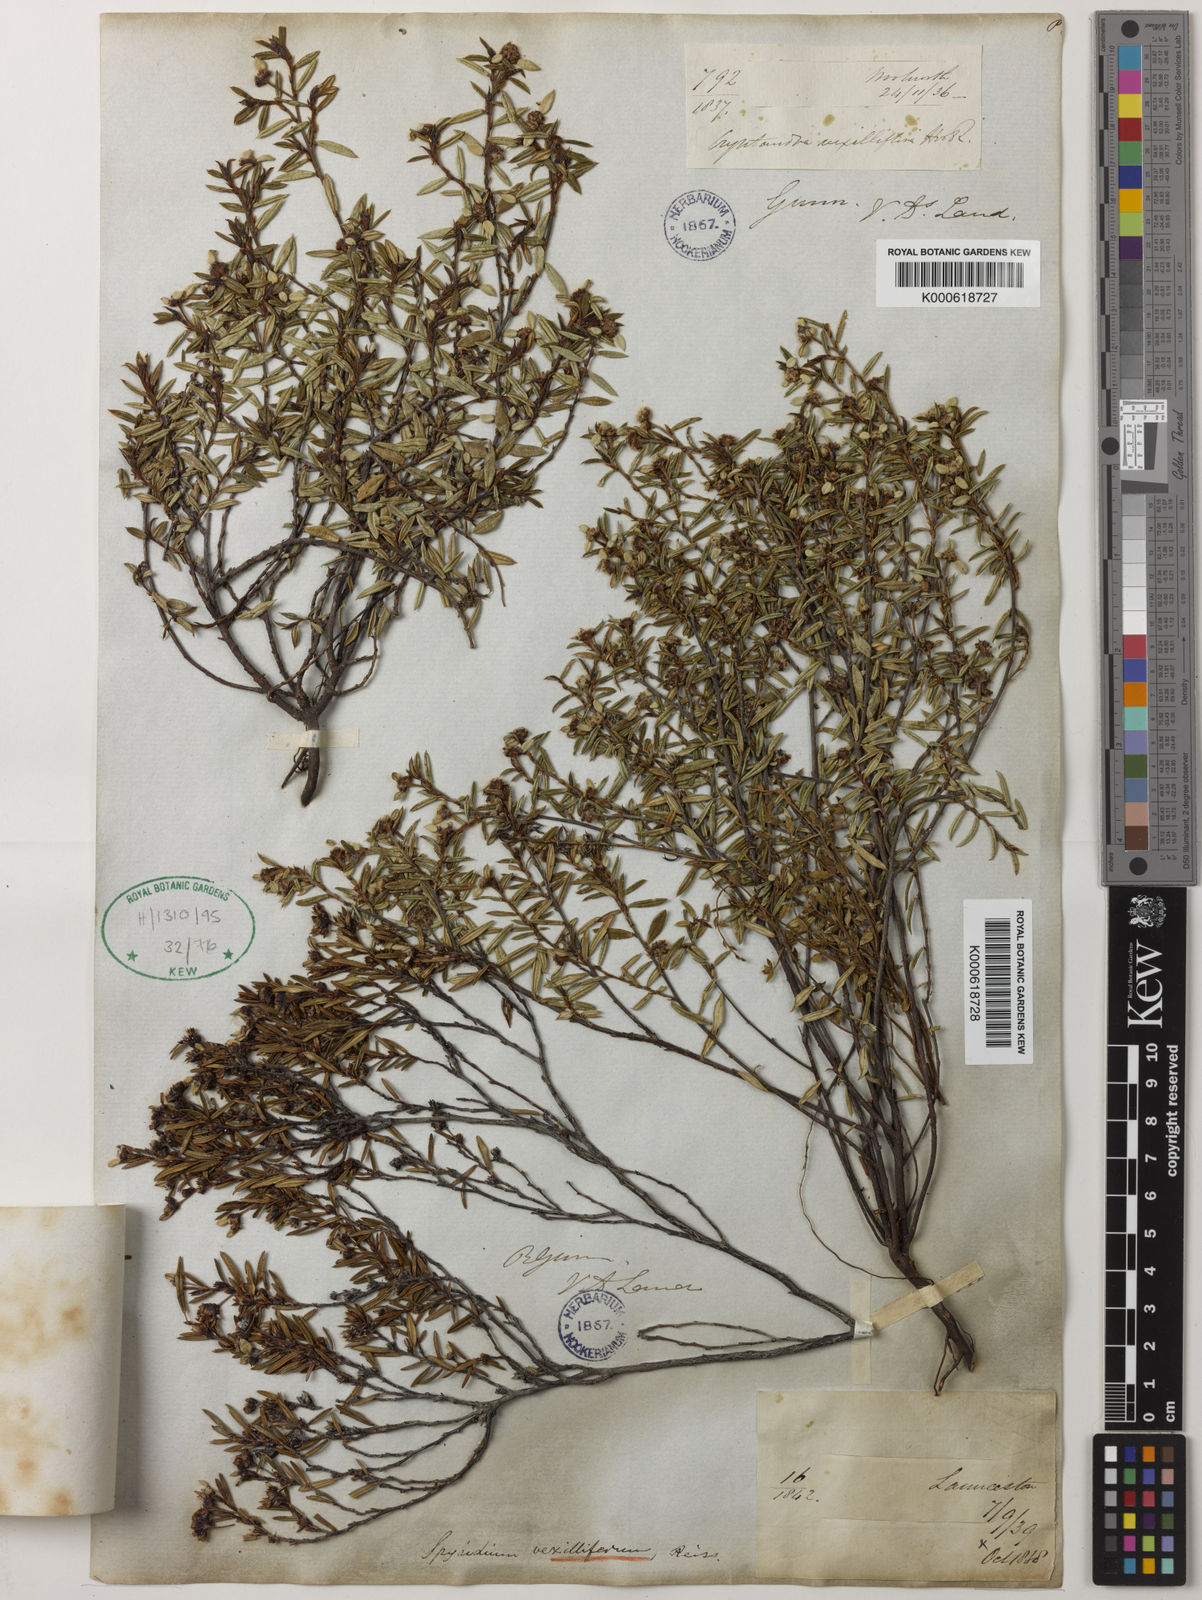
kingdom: Plantae
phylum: Tracheophyta
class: Magnoliopsida
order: Rosales
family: Rhamnaceae
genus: Spyridium
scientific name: Spyridium vexilliferum
